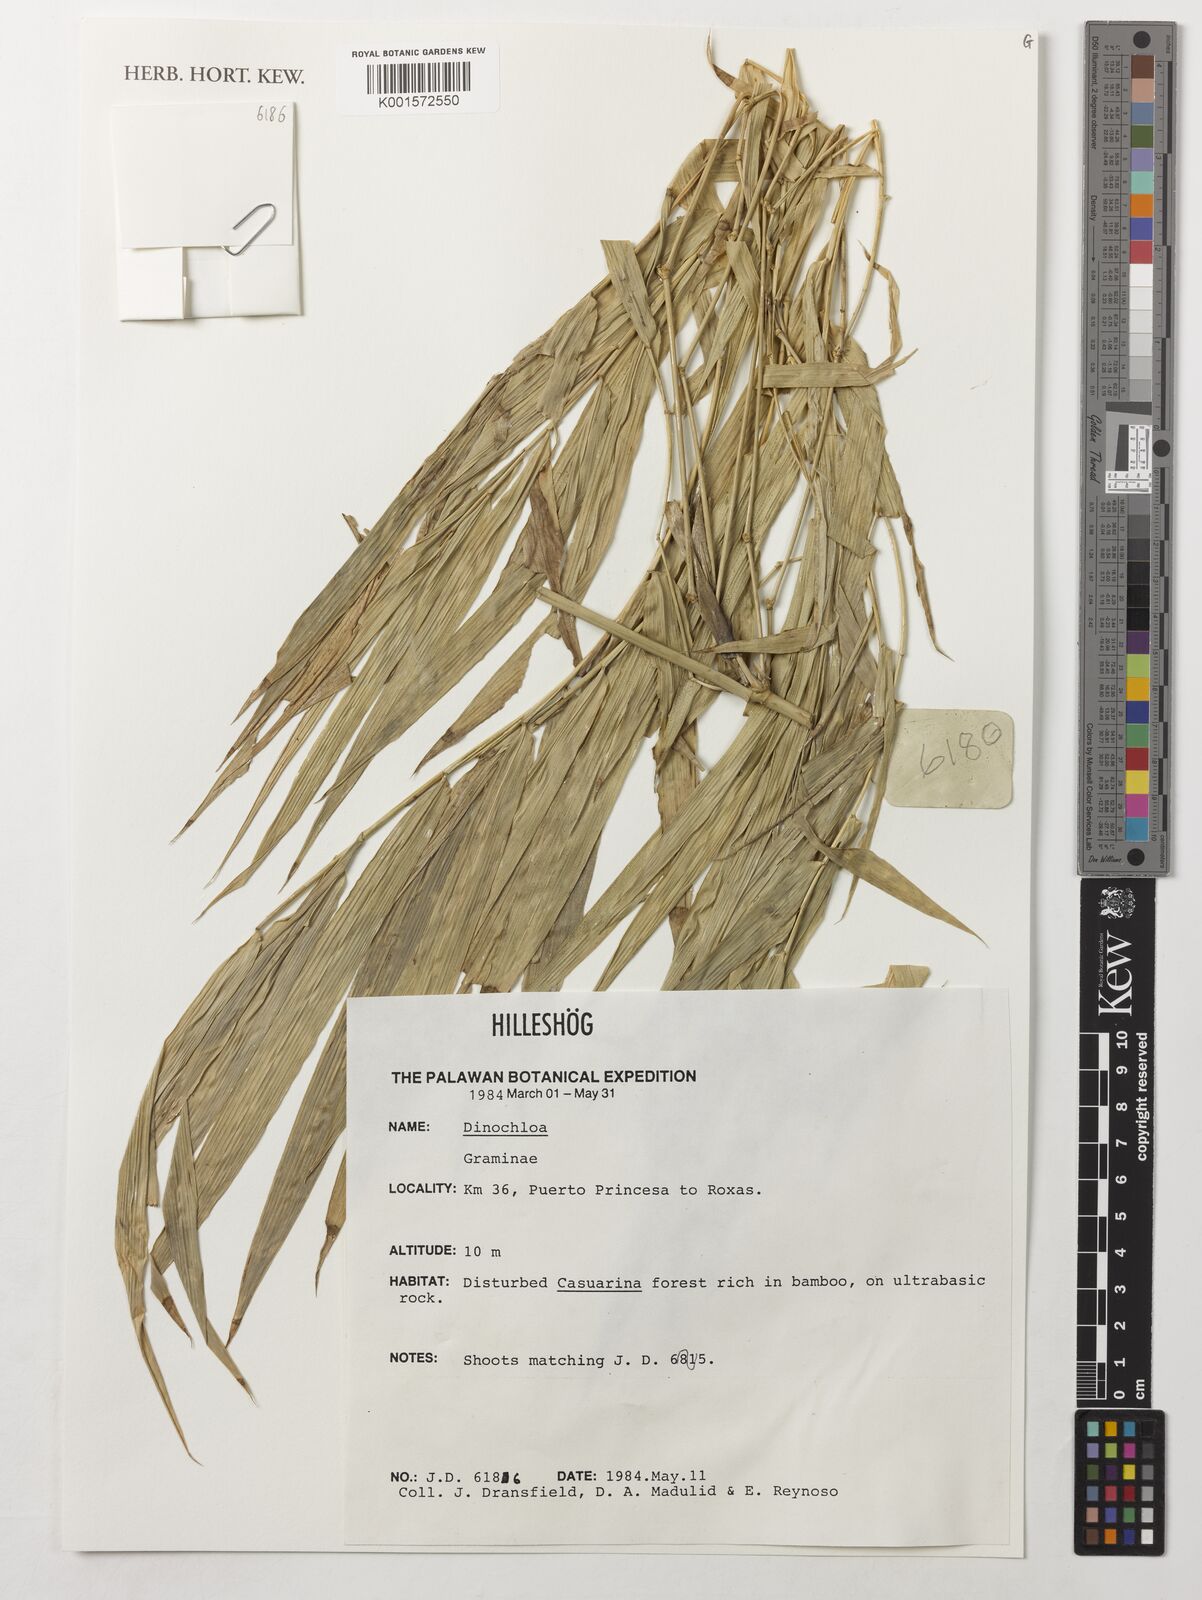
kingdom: Plantae
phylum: Tracheophyta
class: Liliopsida
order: Poales
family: Poaceae
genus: Dinochloa
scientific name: Dinochloa
